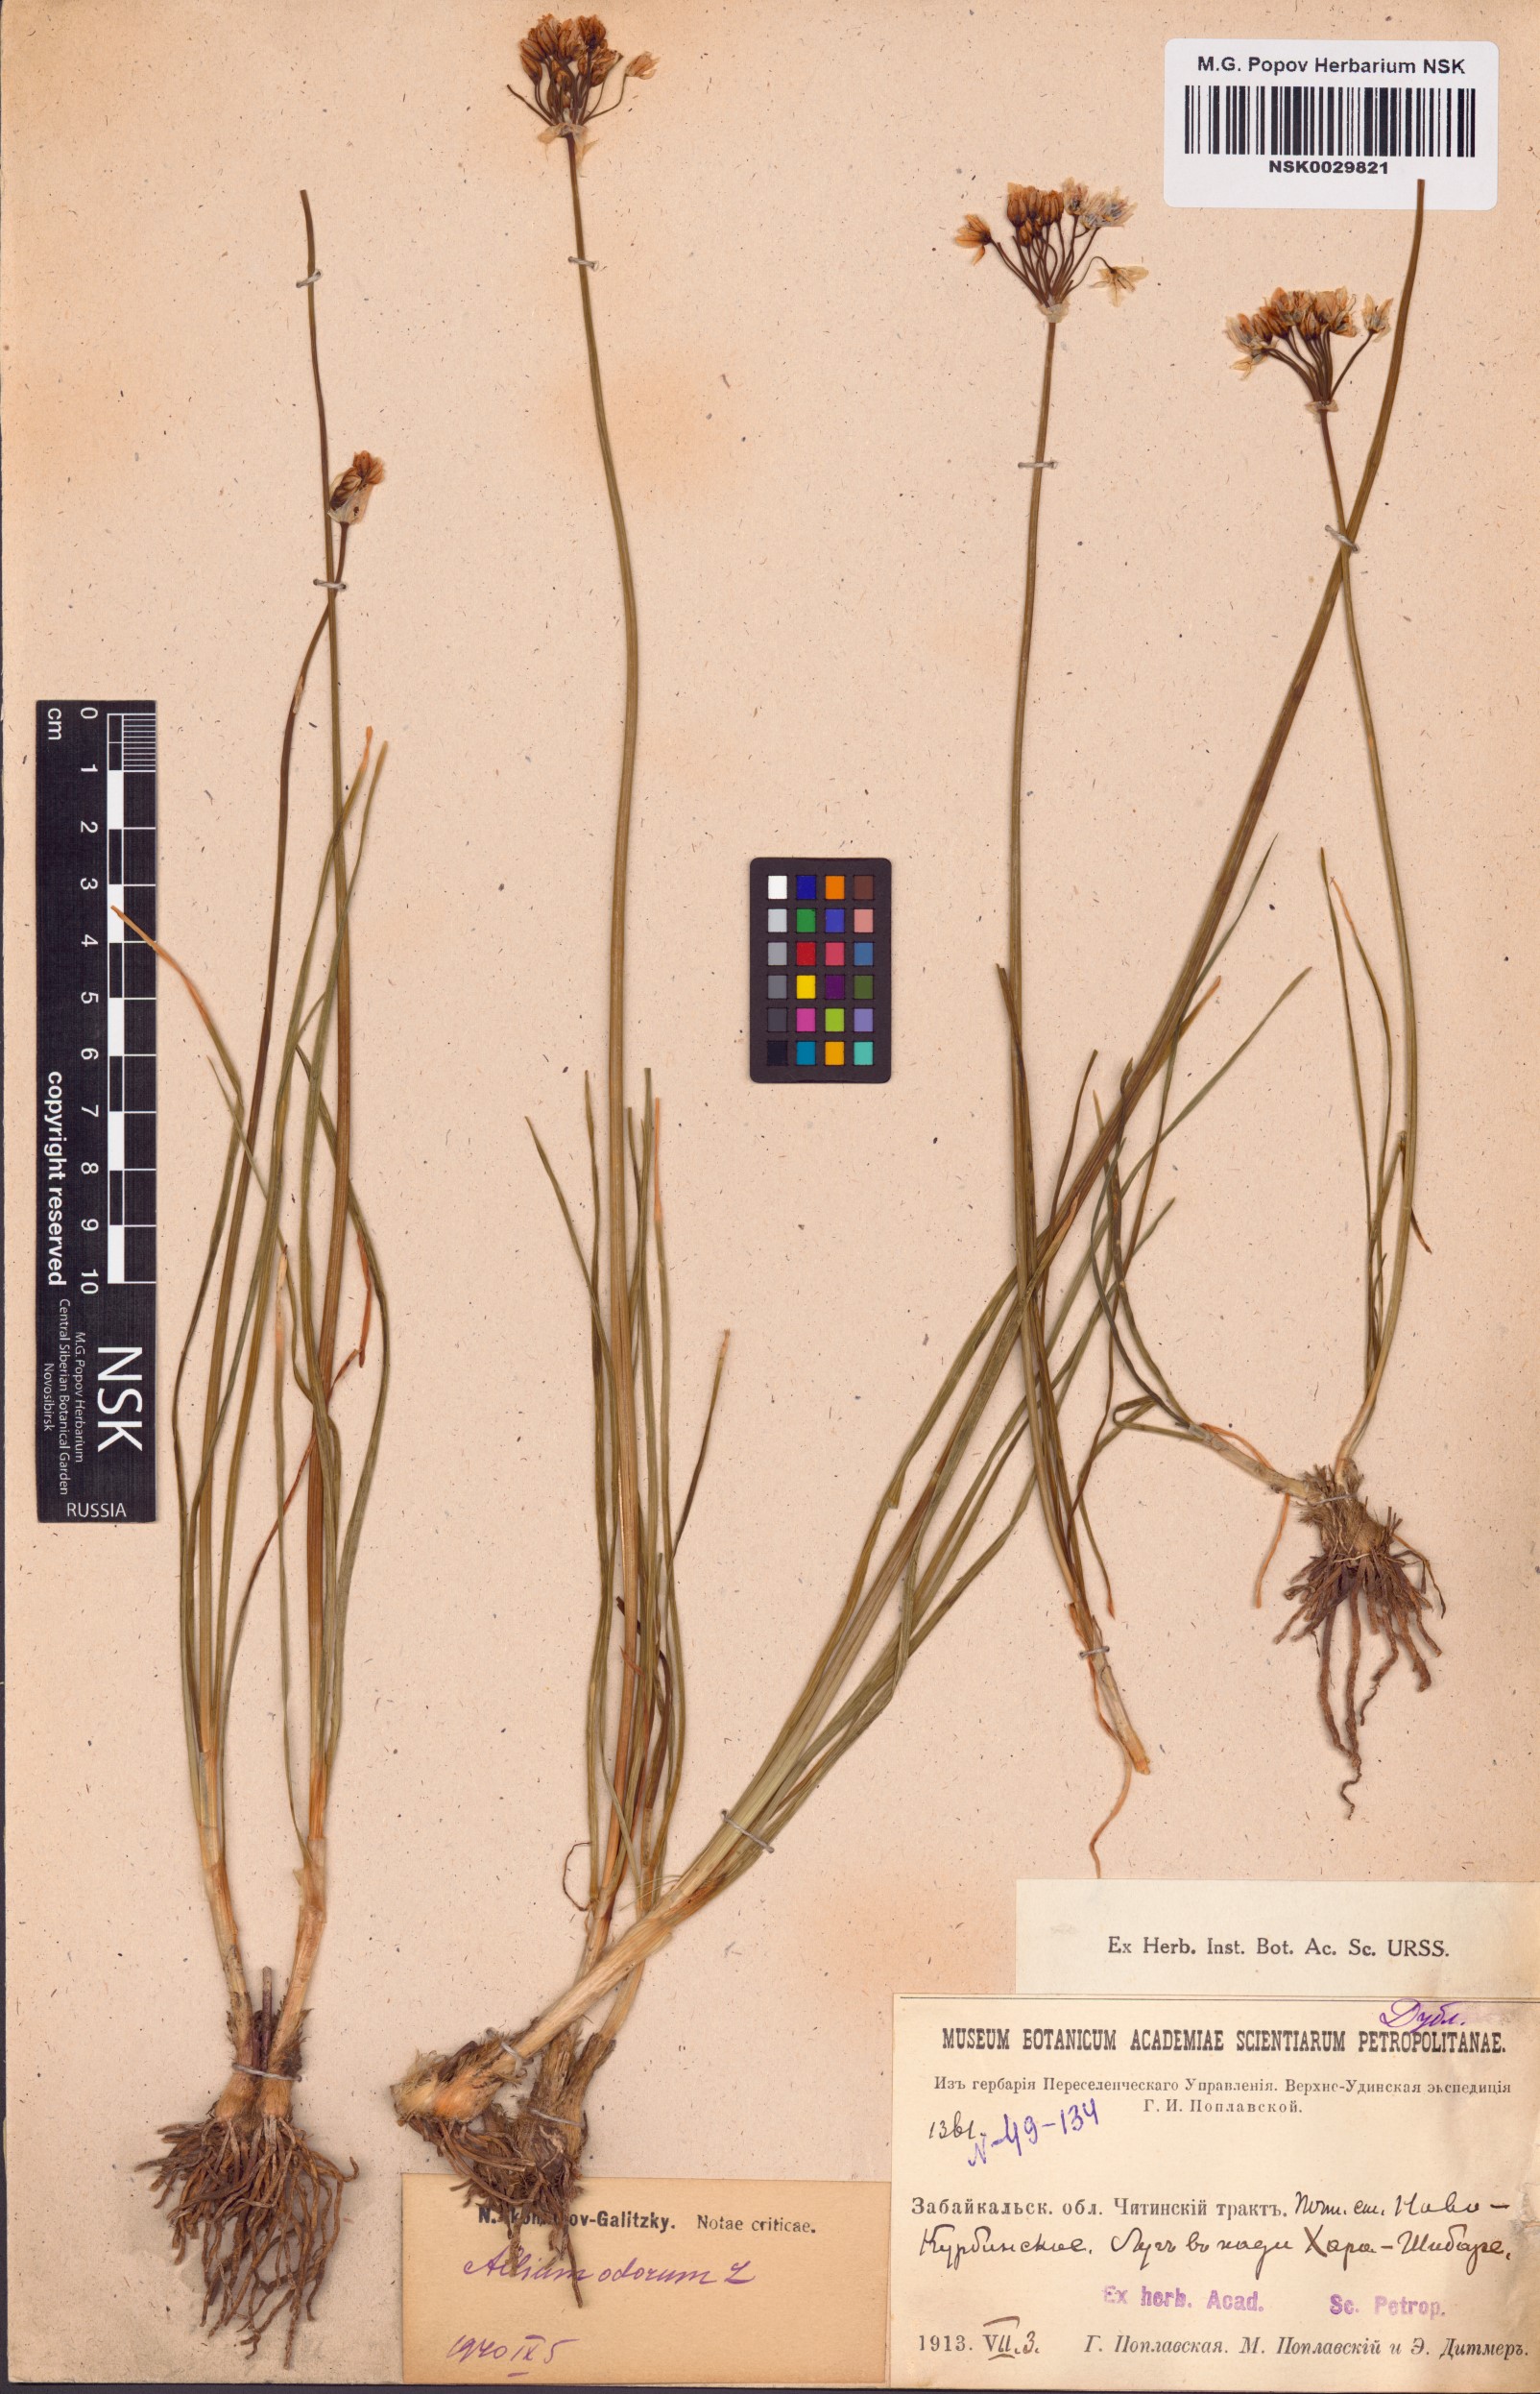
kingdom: Plantae
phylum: Tracheophyta
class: Liliopsida
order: Asparagales
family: Amaryllidaceae
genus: Allium
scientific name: Allium ramosum
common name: Fragrant garlic
